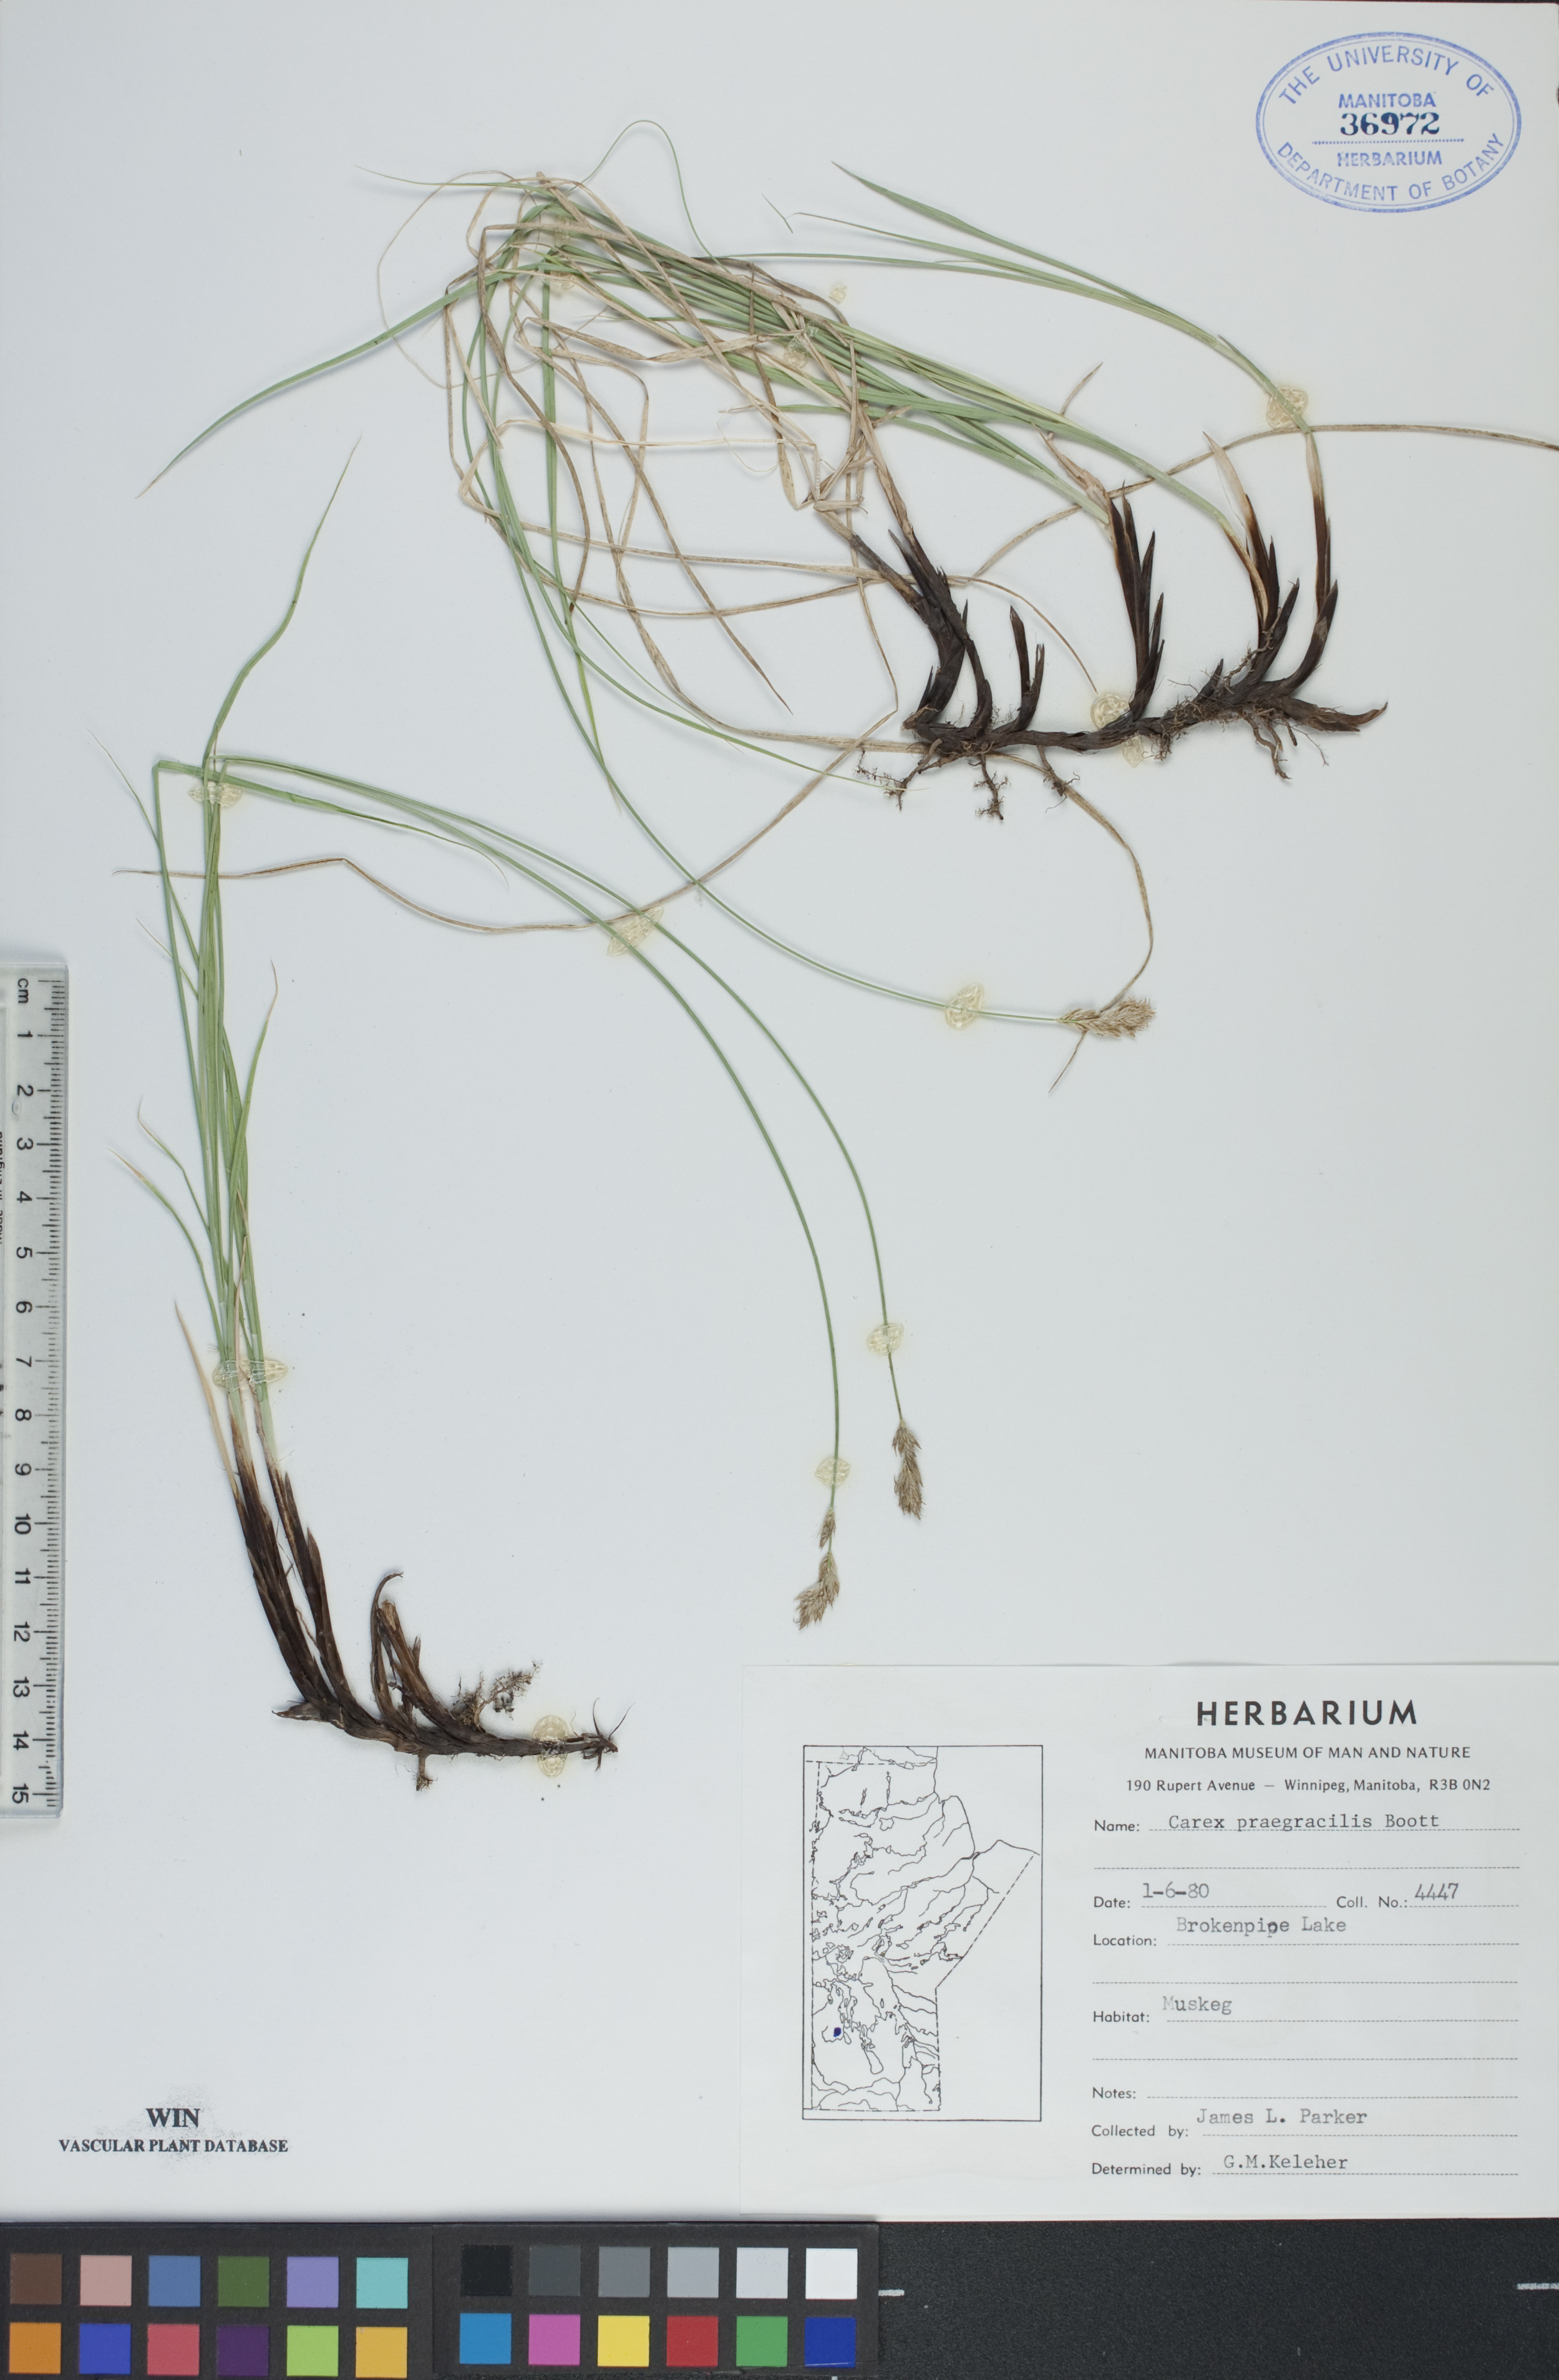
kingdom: Plantae
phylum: Tracheophyta
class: Liliopsida
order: Poales
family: Cyperaceae
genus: Carex
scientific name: Carex praegracilis
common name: Black creeper sedge
